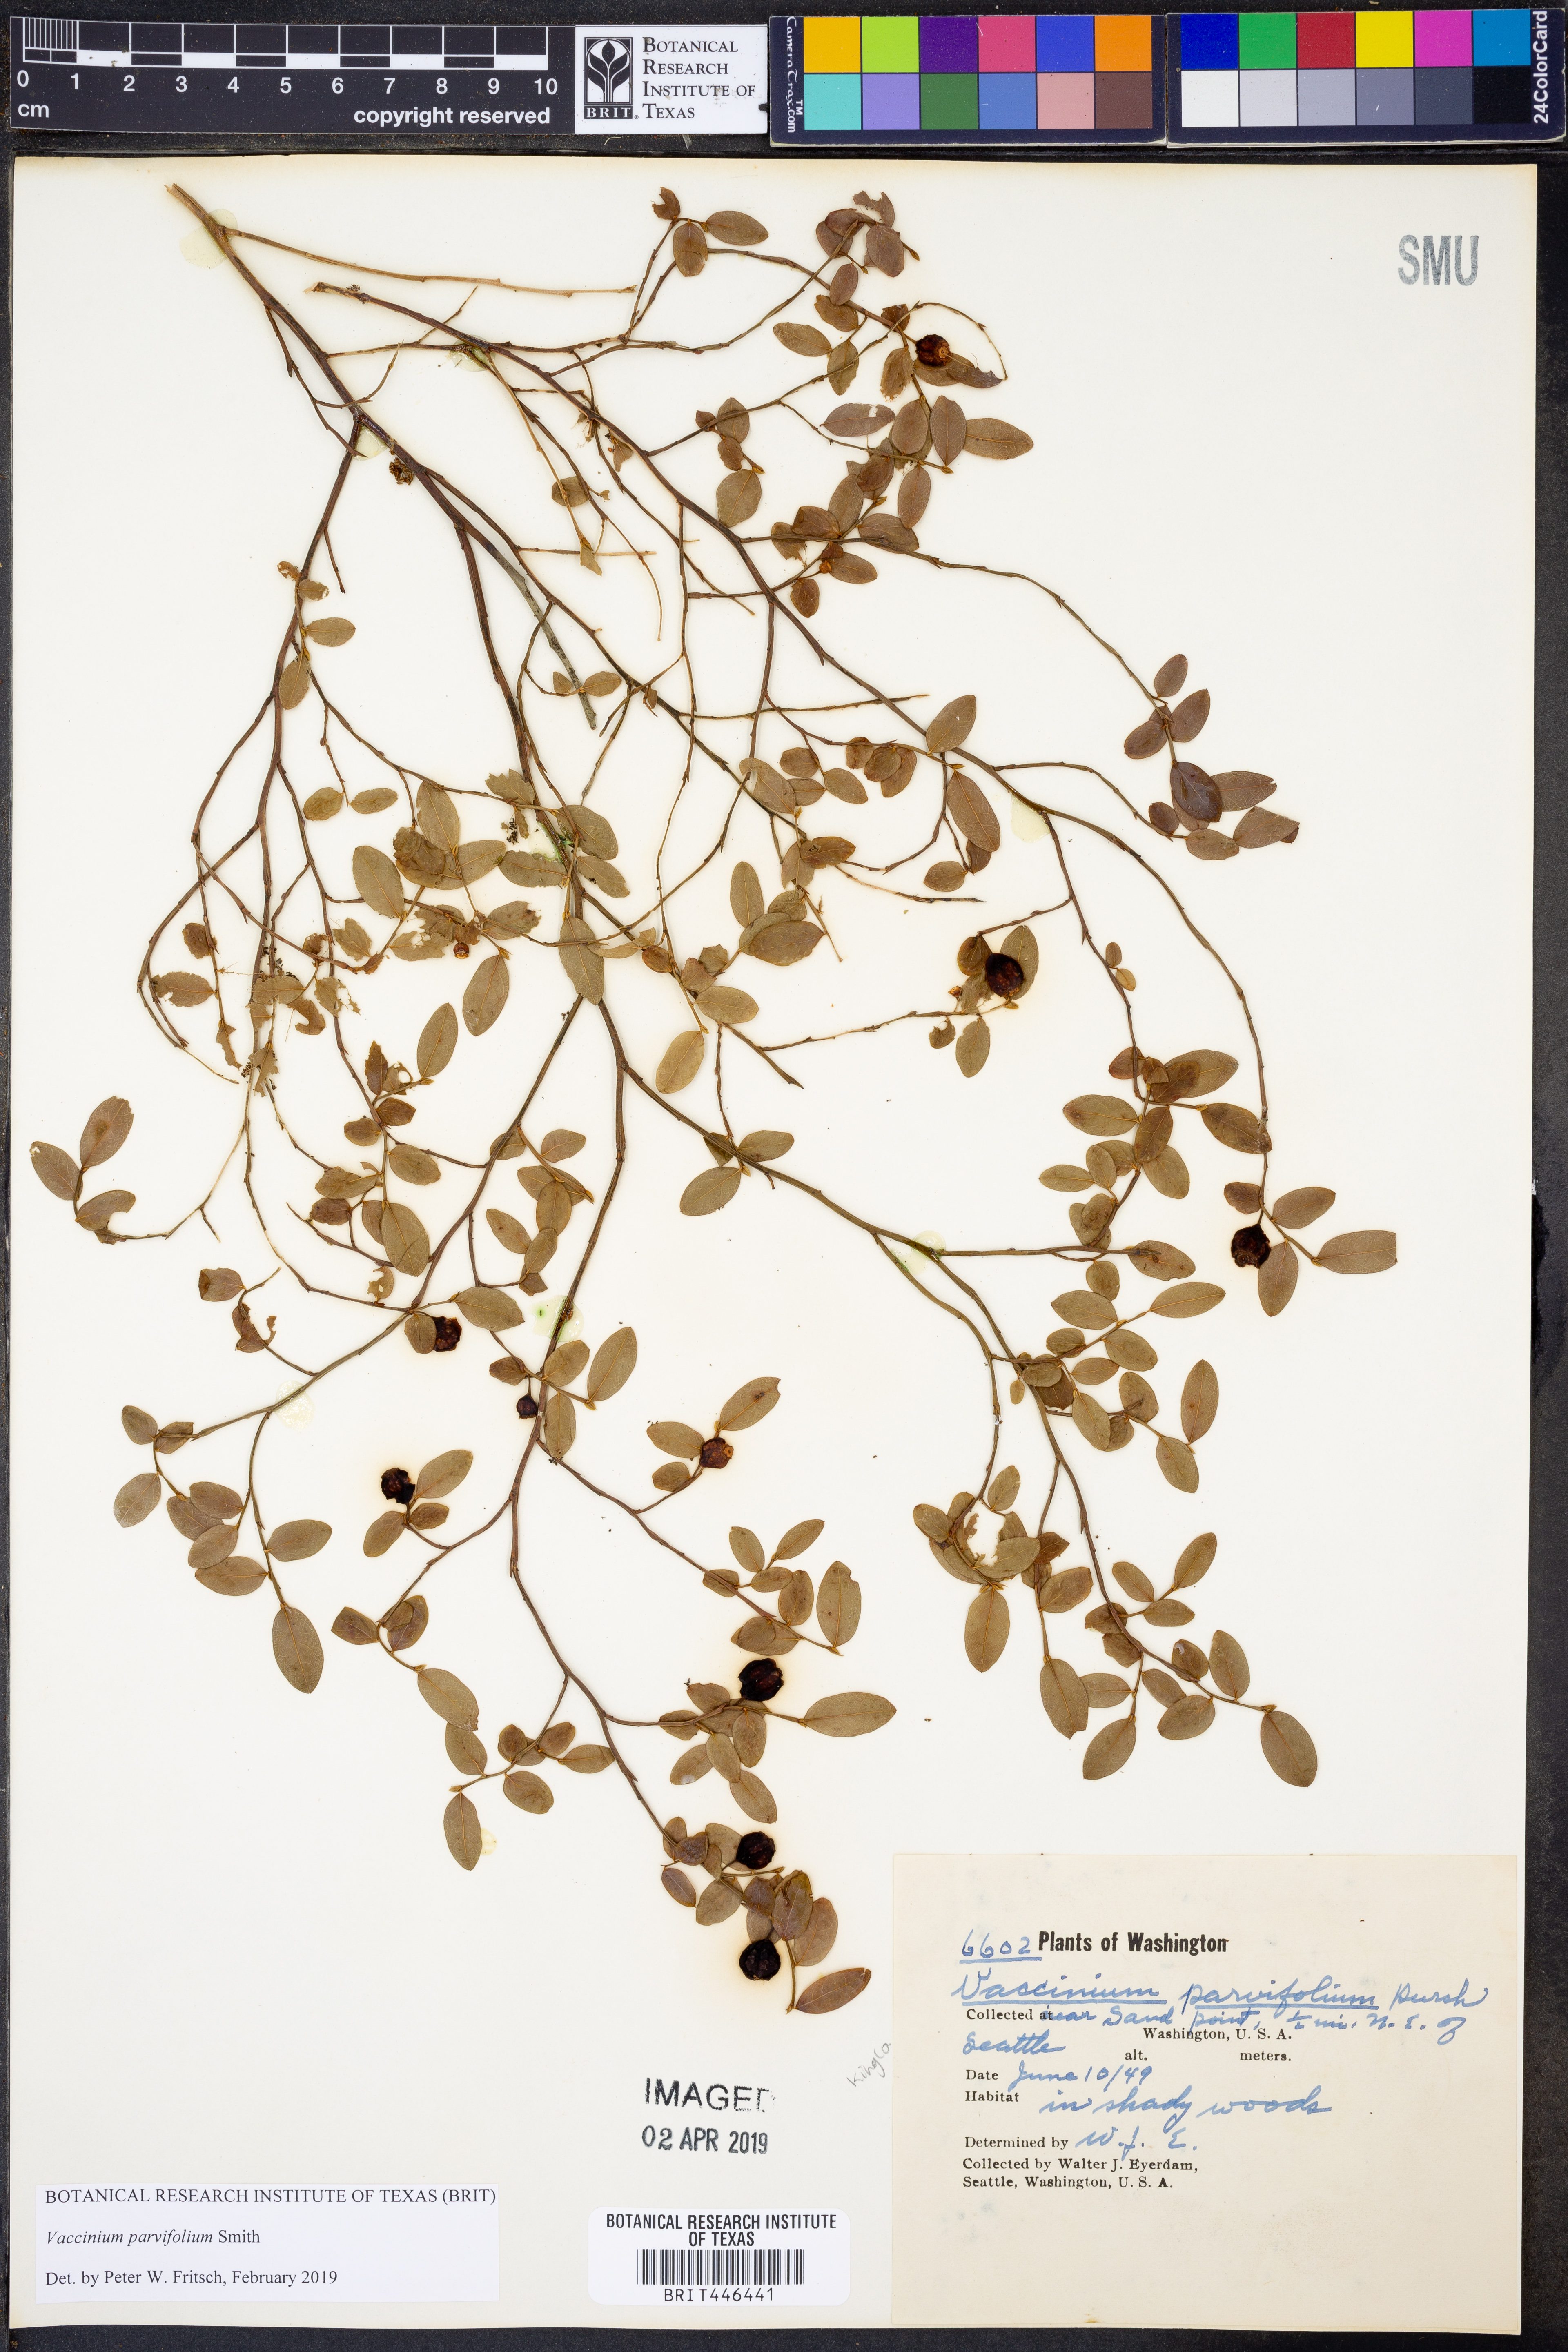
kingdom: Plantae
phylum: Tracheophyta
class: Magnoliopsida
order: Ericales
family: Ericaceae
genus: Vaccinium
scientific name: Vaccinium parvifolium
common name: Red-huckleberry
